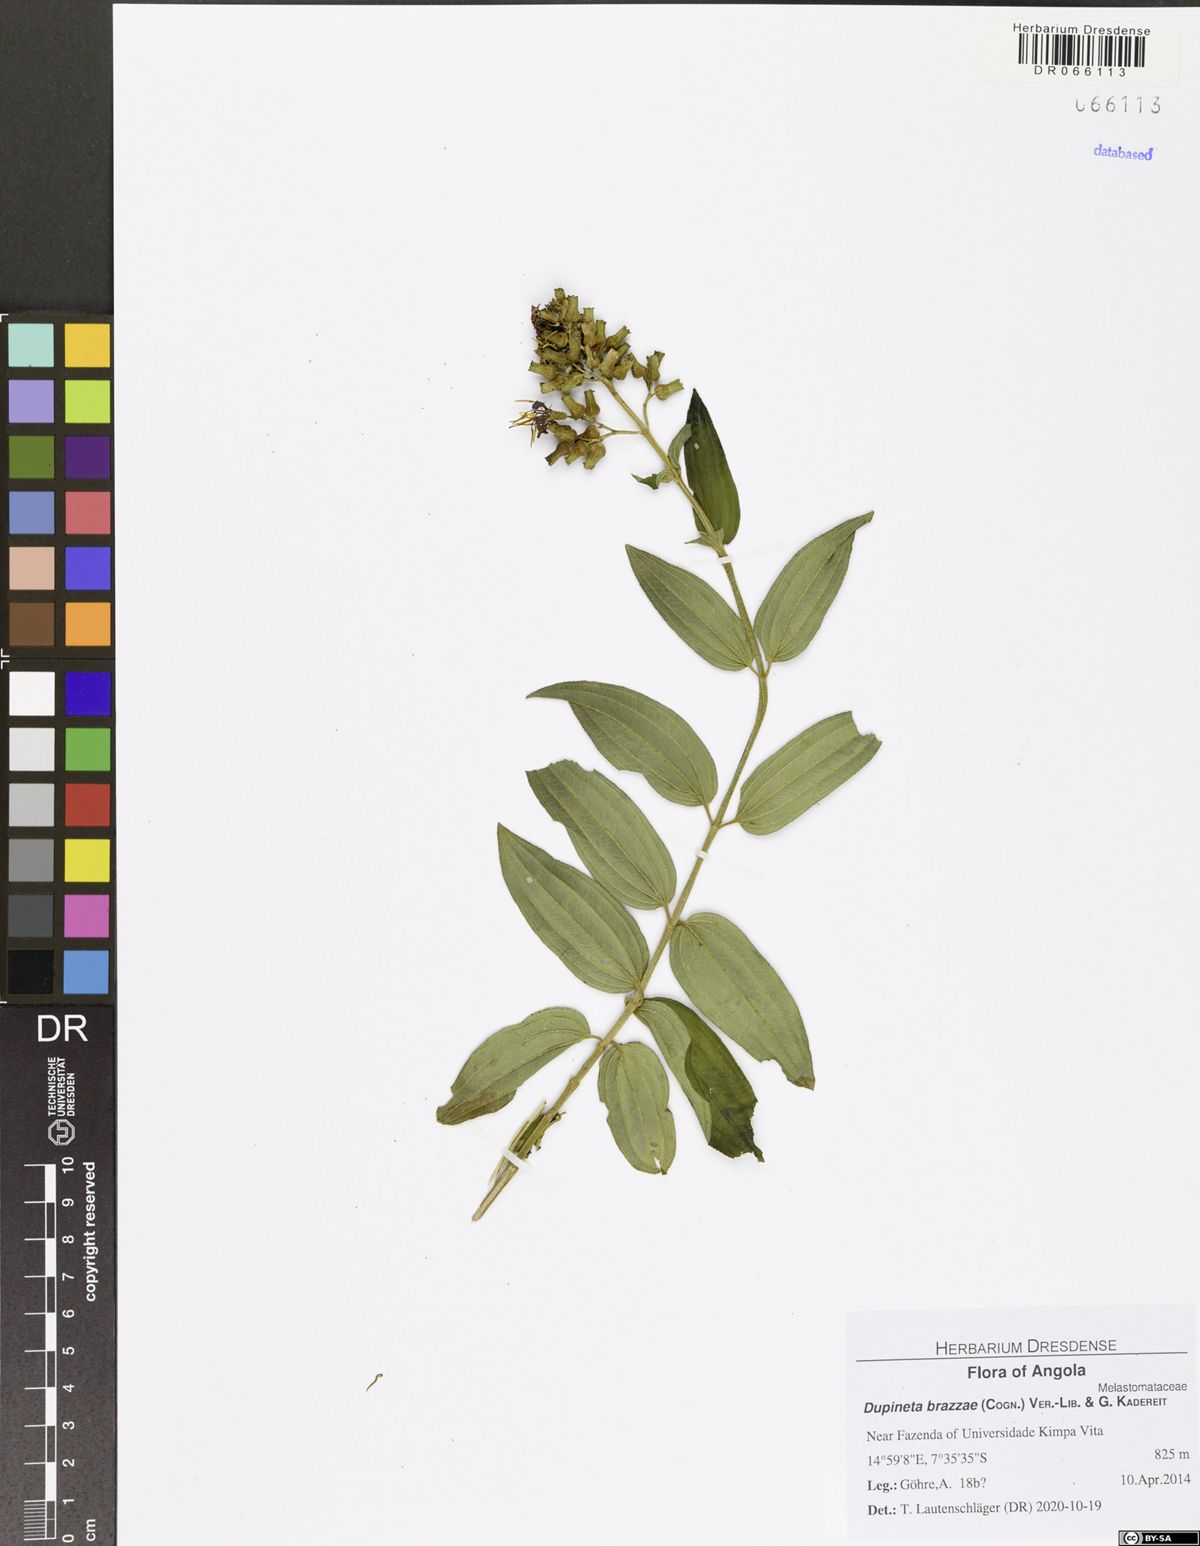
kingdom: Plantae
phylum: Tracheophyta
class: Magnoliopsida
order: Myrtales
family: Melastomataceae
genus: Dupineta
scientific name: Dupineta brazzae
